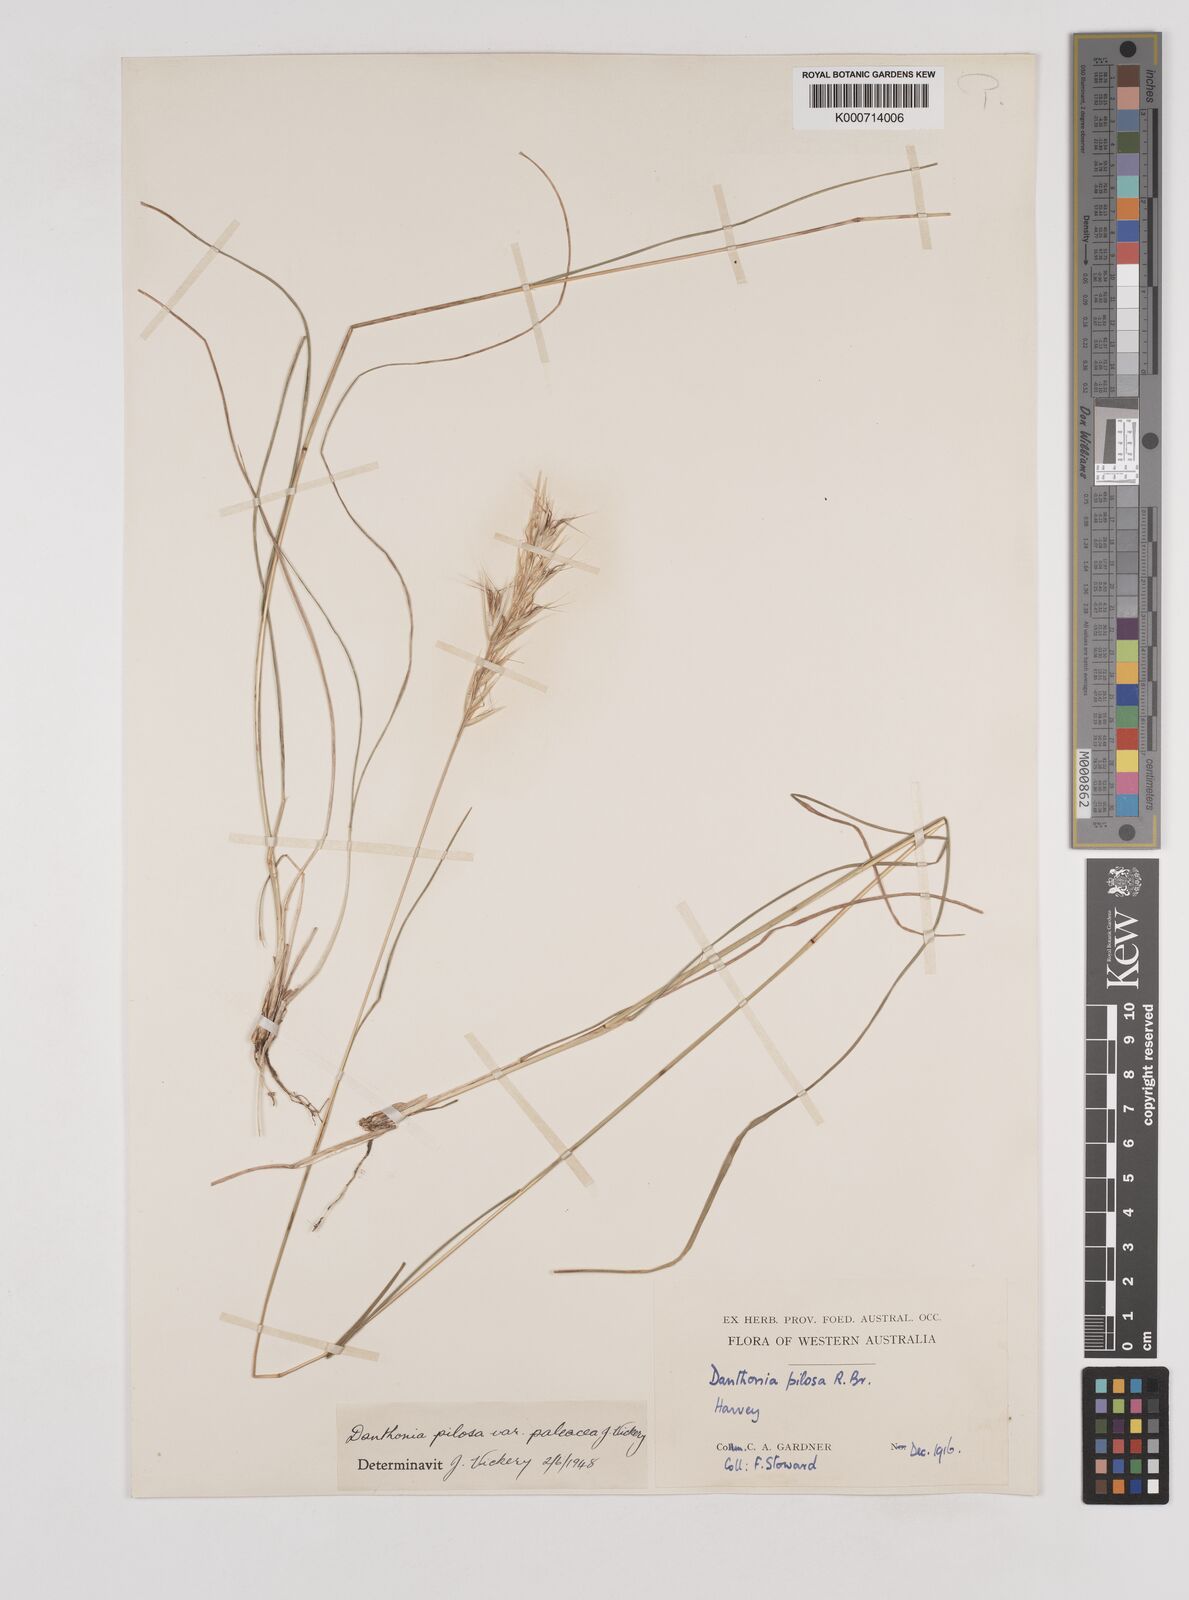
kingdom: Plantae
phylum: Tracheophyta
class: Liliopsida
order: Poales
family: Poaceae
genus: Rytidosperma
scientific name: Rytidosperma pilosum
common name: Hairy wallaby grass
